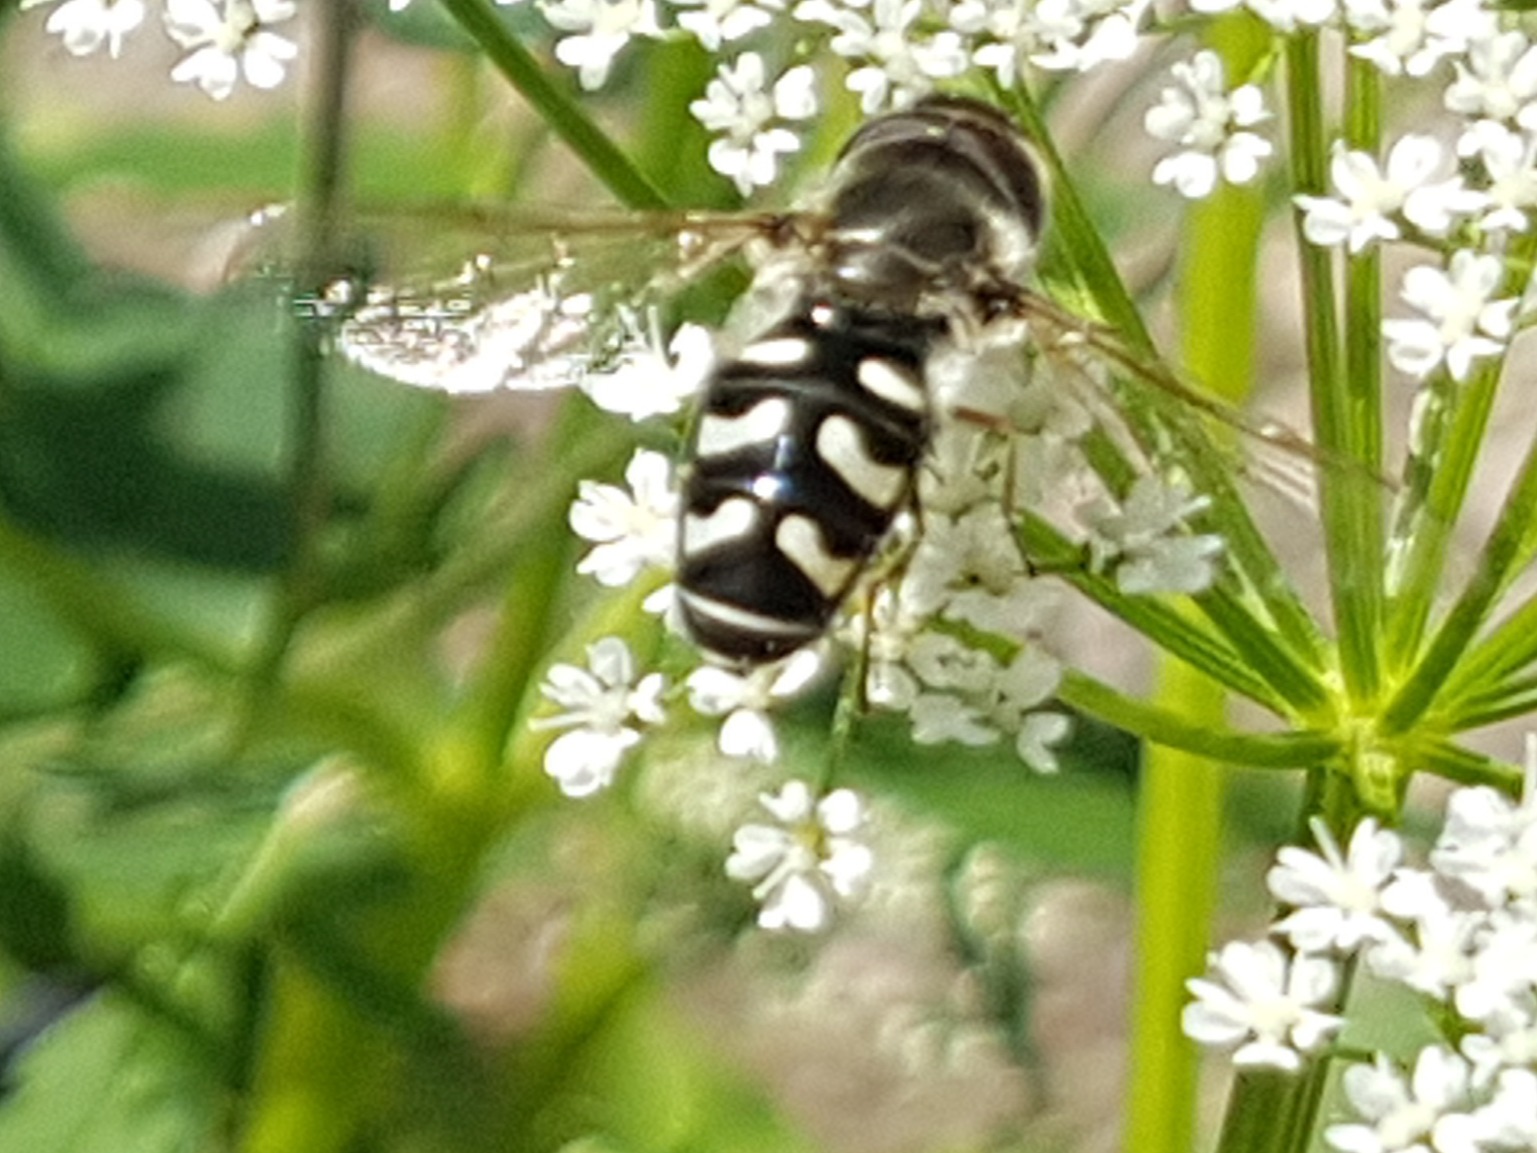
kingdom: Animalia
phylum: Arthropoda
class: Insecta
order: Diptera
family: Syrphidae
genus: Scaeva
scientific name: Scaeva pyrastri
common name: Hvidplettet agersvirreflue
